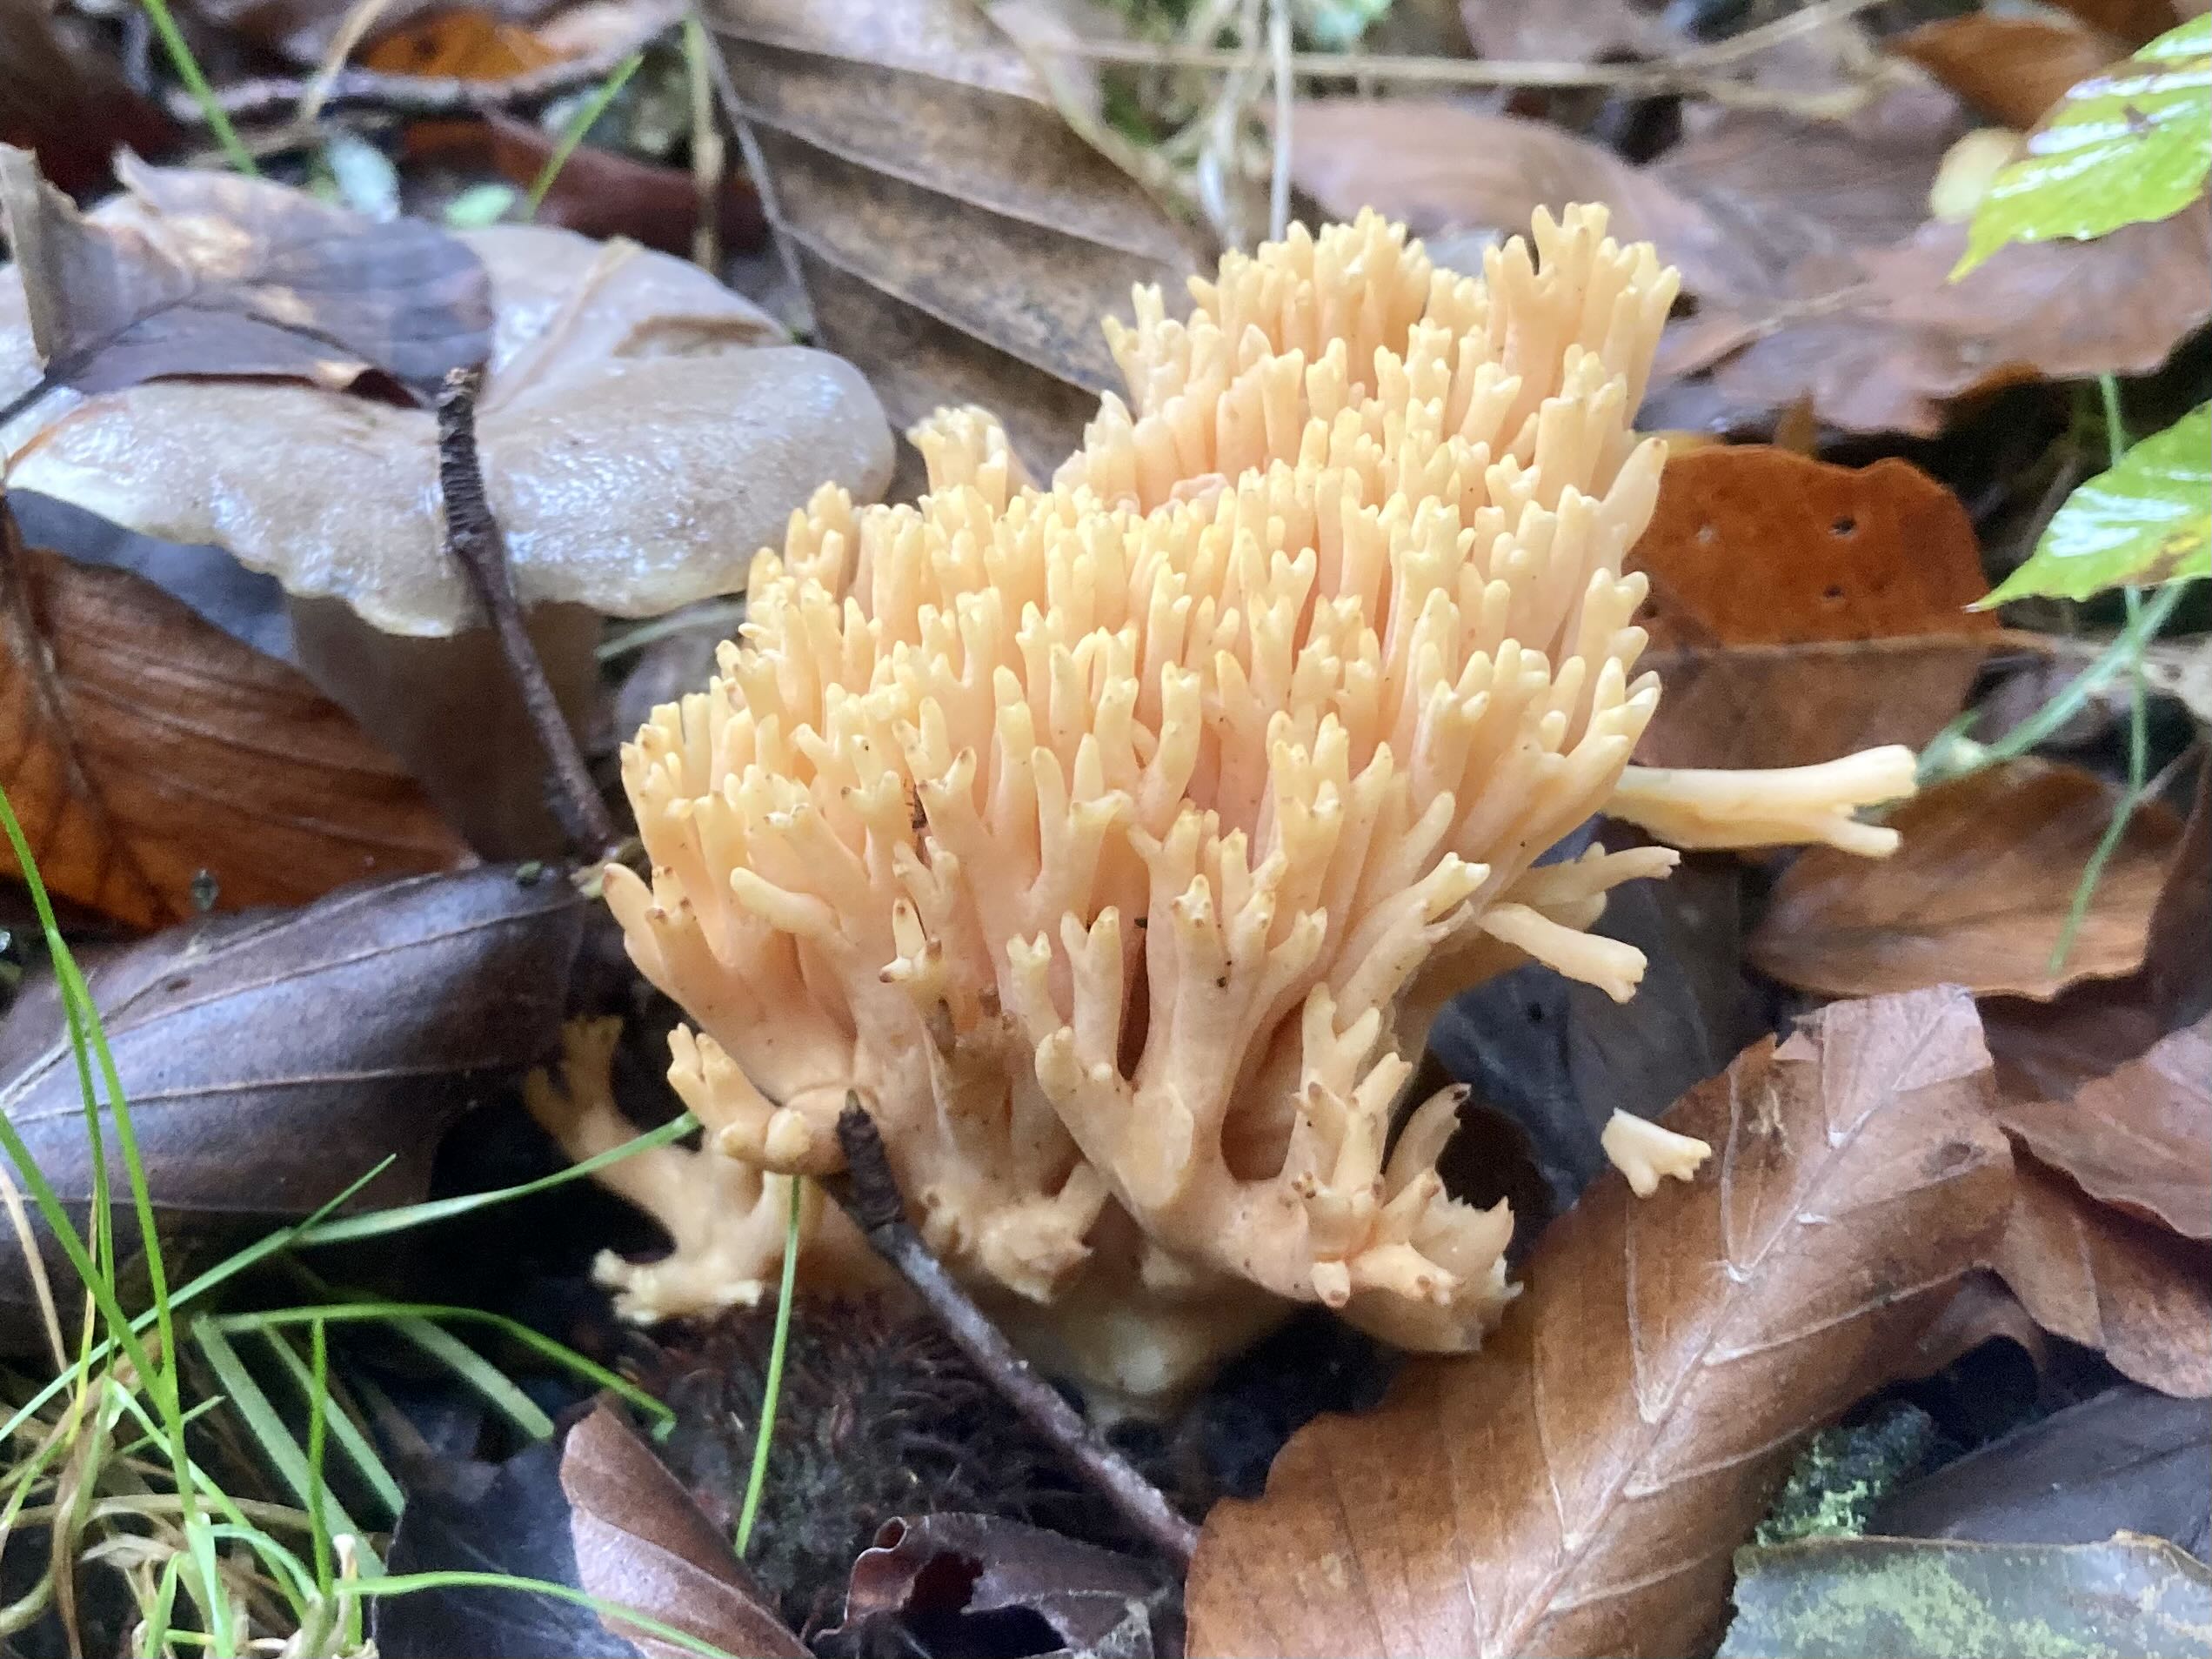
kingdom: Fungi
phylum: Basidiomycota
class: Agaricomycetes
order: Gomphales
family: Gomphaceae
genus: Ramaria
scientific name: Ramaria fagetorum
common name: abrikos-koralsvamp
